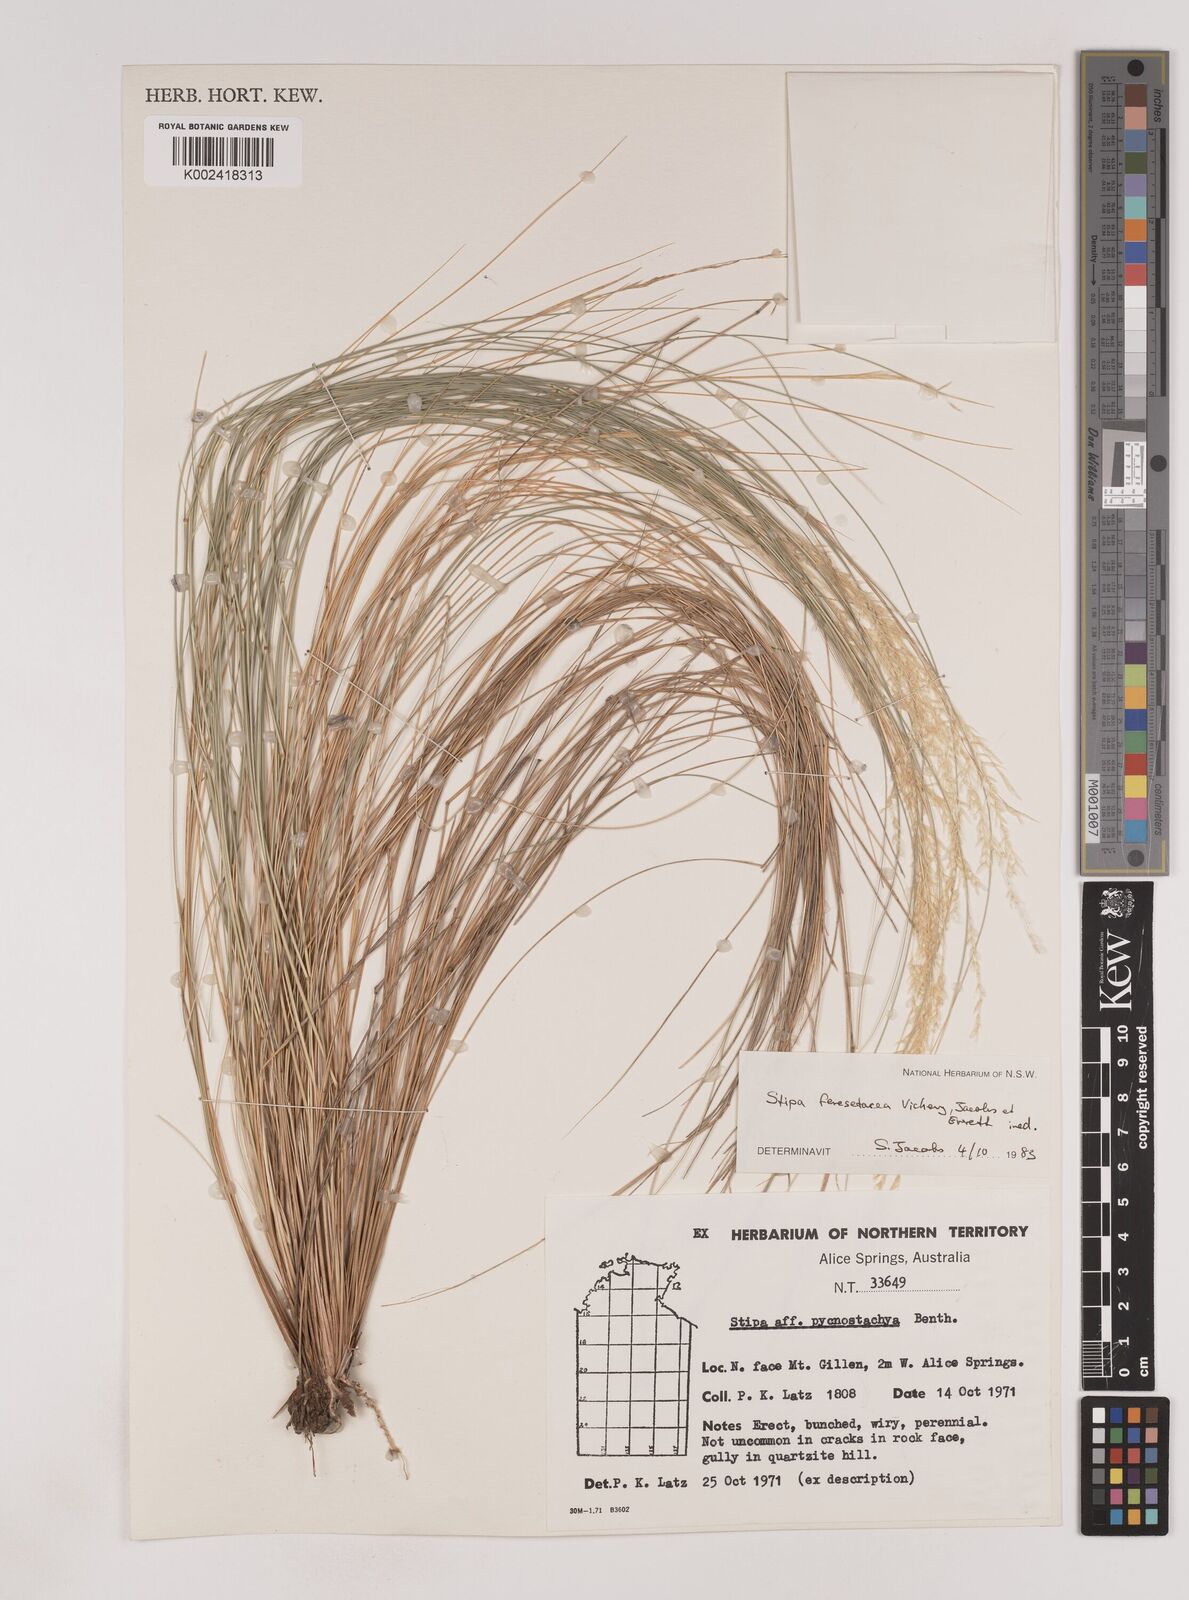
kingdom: Plantae
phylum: Tracheophyta
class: Liliopsida
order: Poales
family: Poaceae
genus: Piptochaetium
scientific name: Piptochaetium
